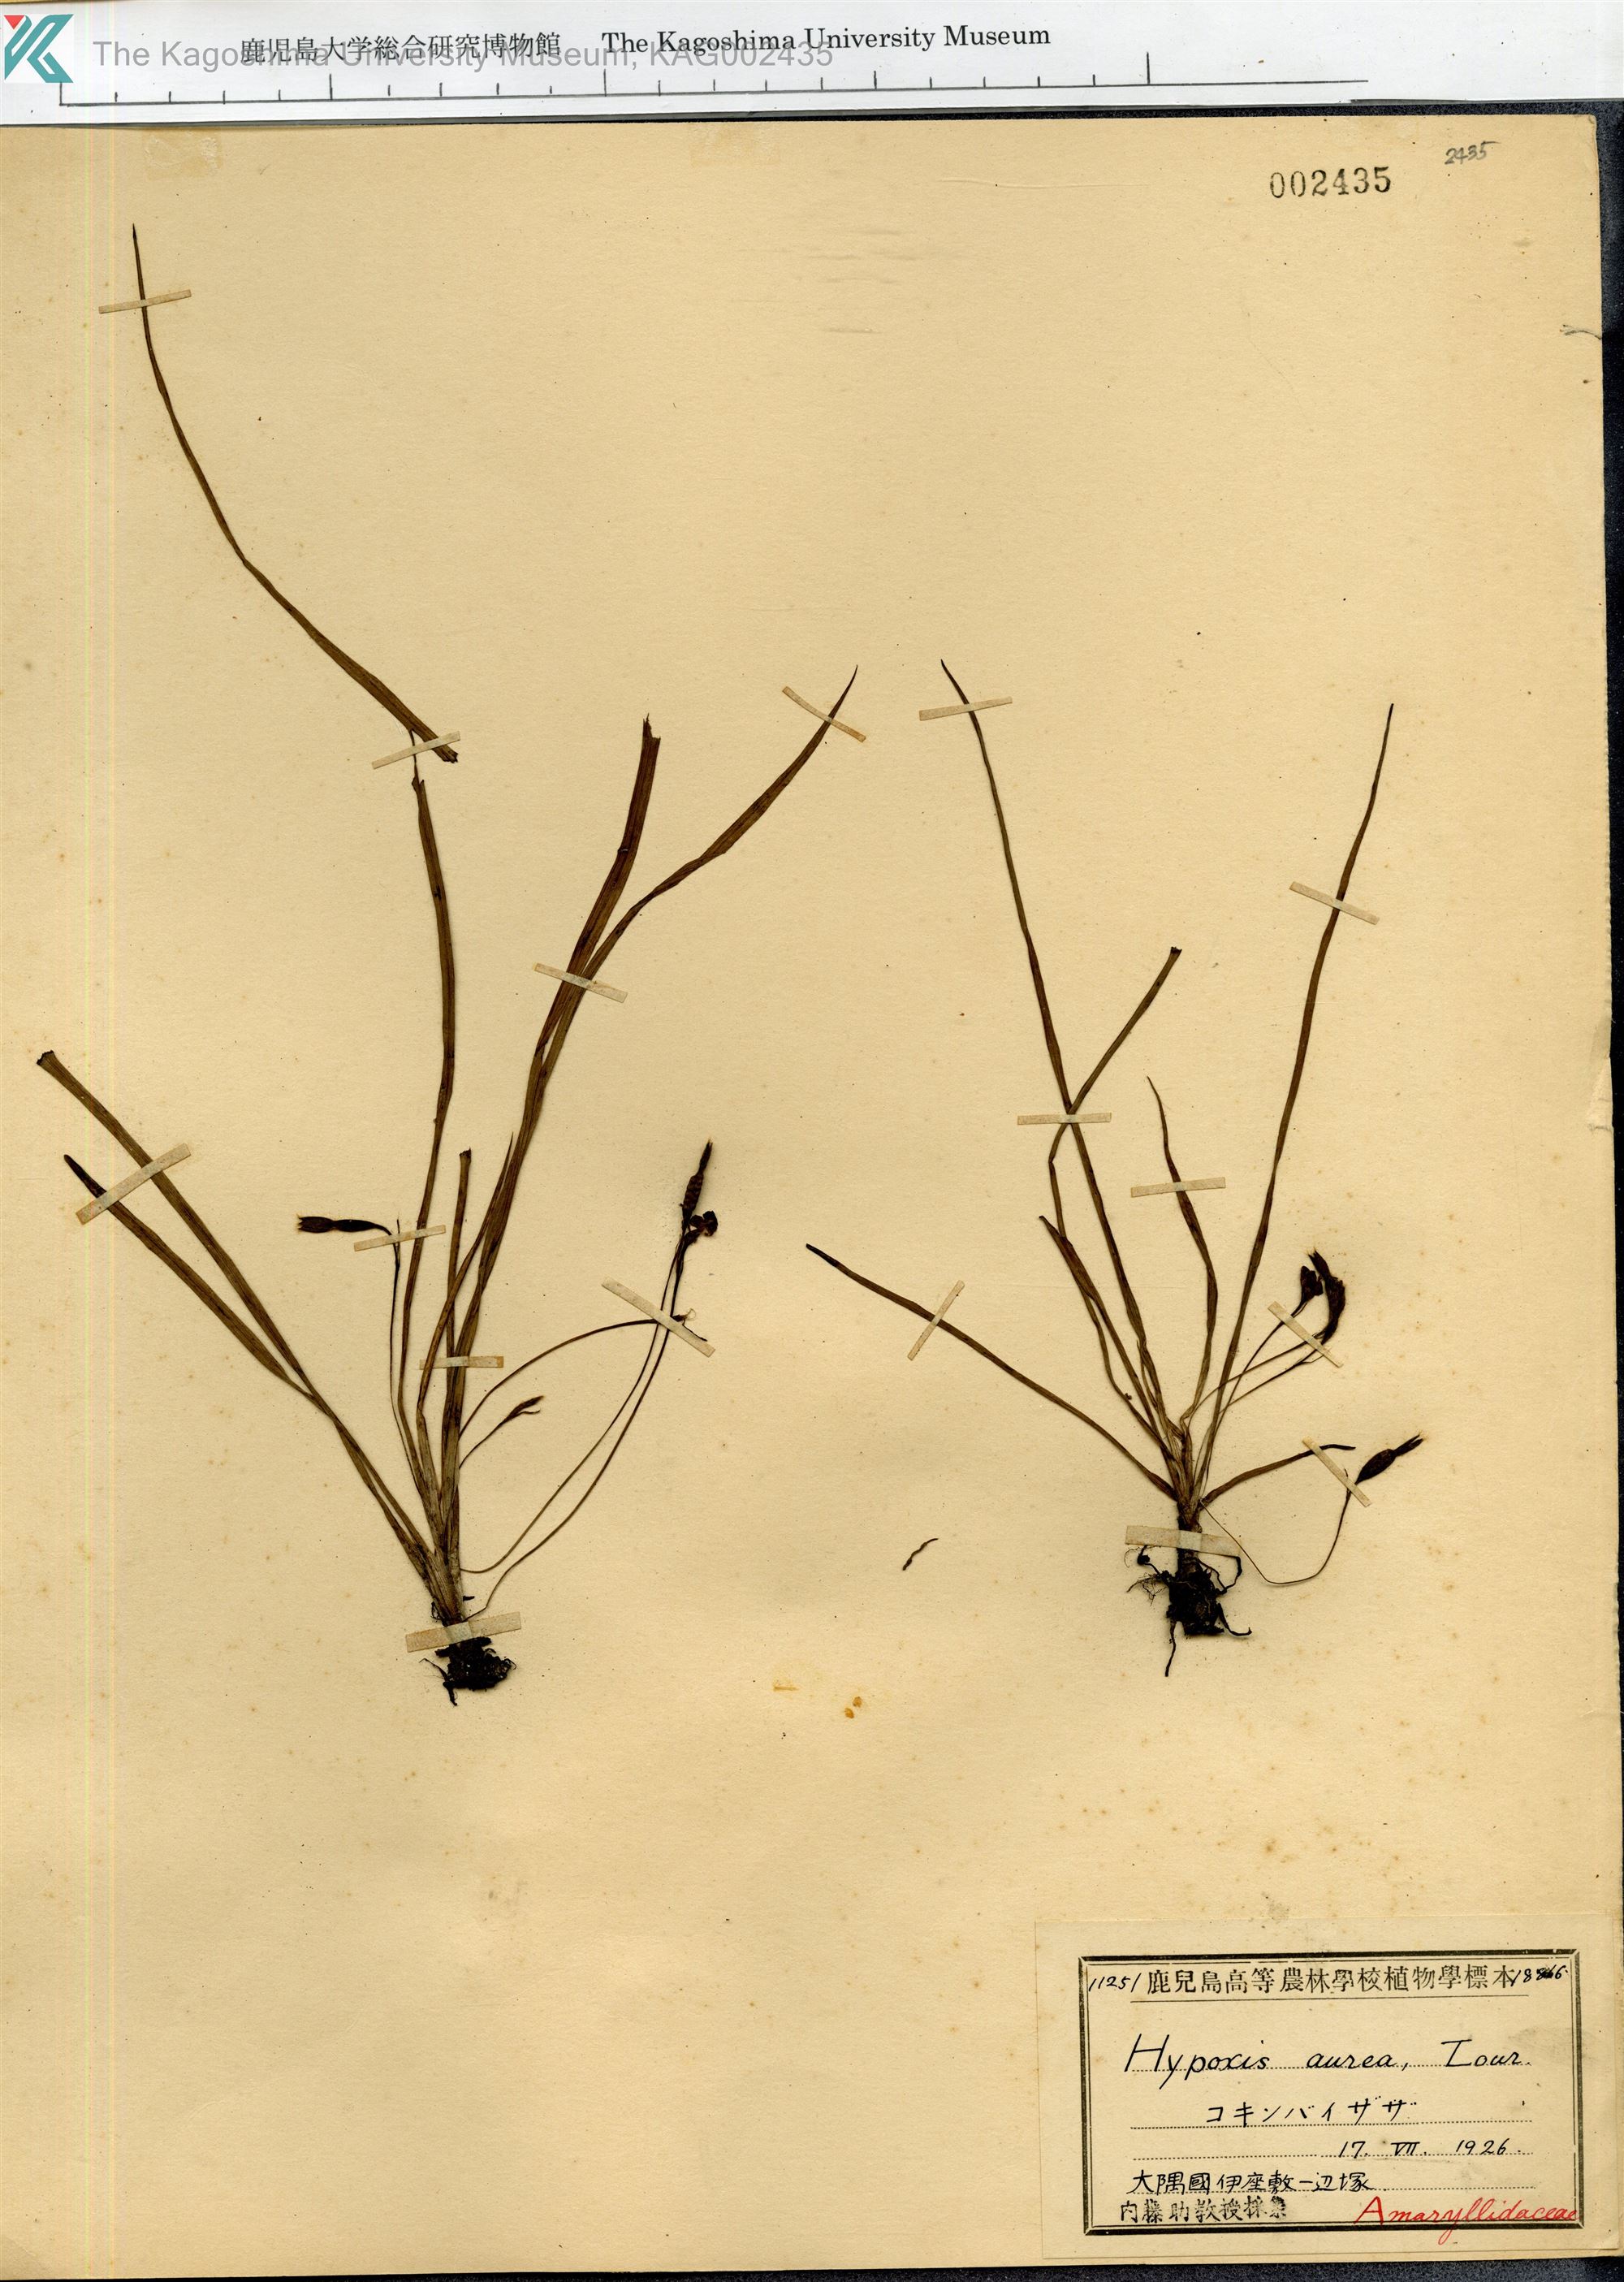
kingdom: Plantae
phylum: Tracheophyta
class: Liliopsida
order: Asparagales
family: Hypoxidaceae
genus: Hypoxis
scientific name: Hypoxis aurea
